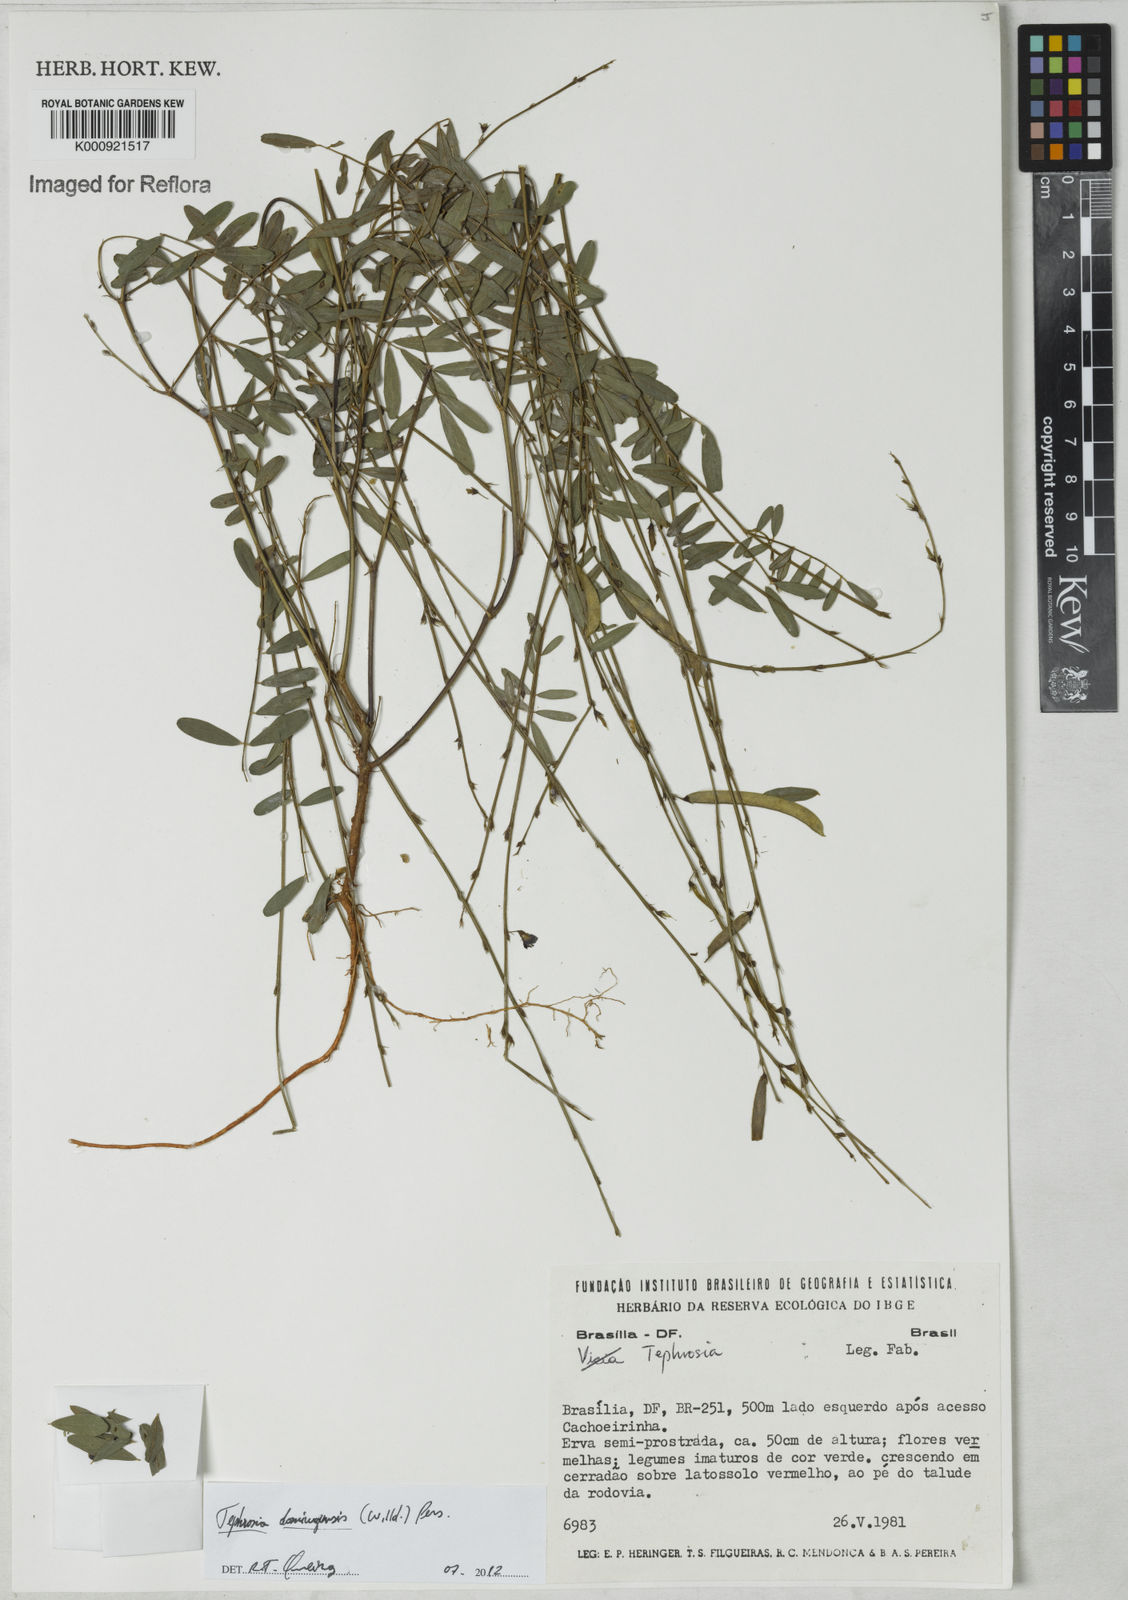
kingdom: Plantae
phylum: Tracheophyta
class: Magnoliopsida
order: Fabales
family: Fabaceae
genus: Tephrosia
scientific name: Tephrosia domingensis
